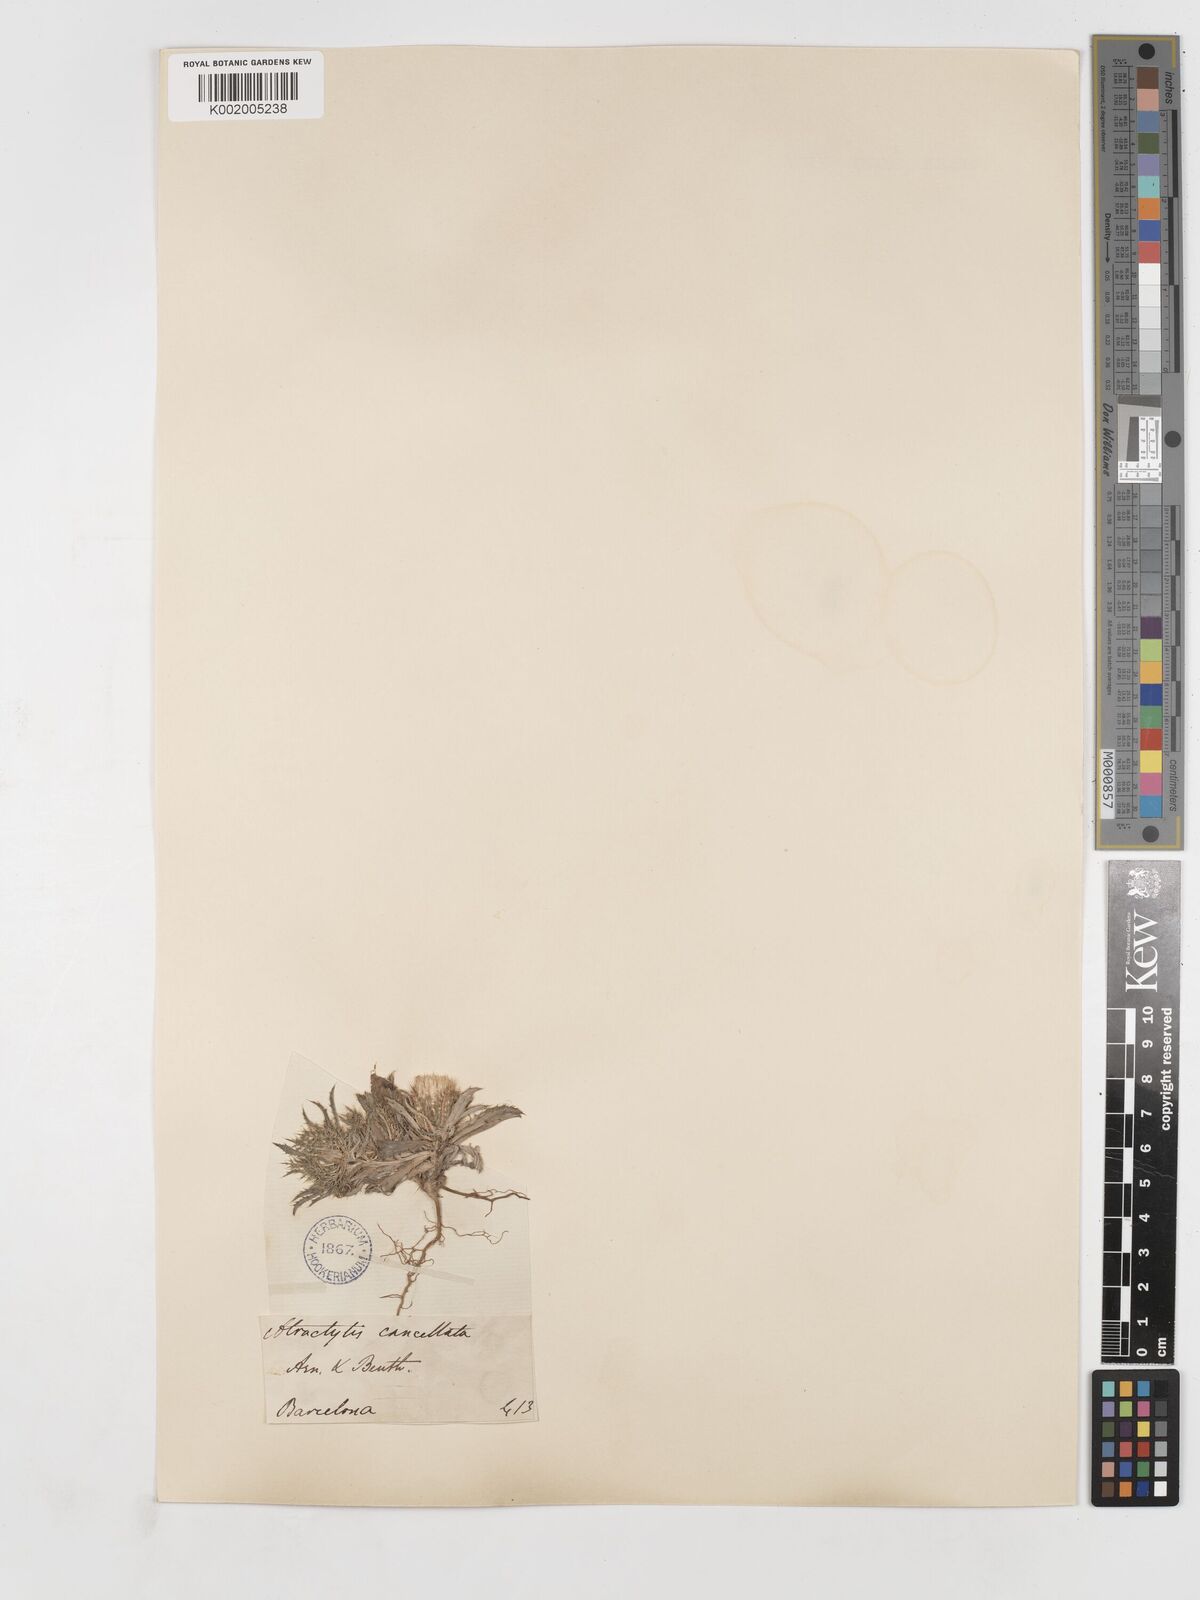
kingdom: Plantae
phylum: Tracheophyta
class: Magnoliopsida
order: Asterales
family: Asteraceae
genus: Atractylis
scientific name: Atractylis cancellata
